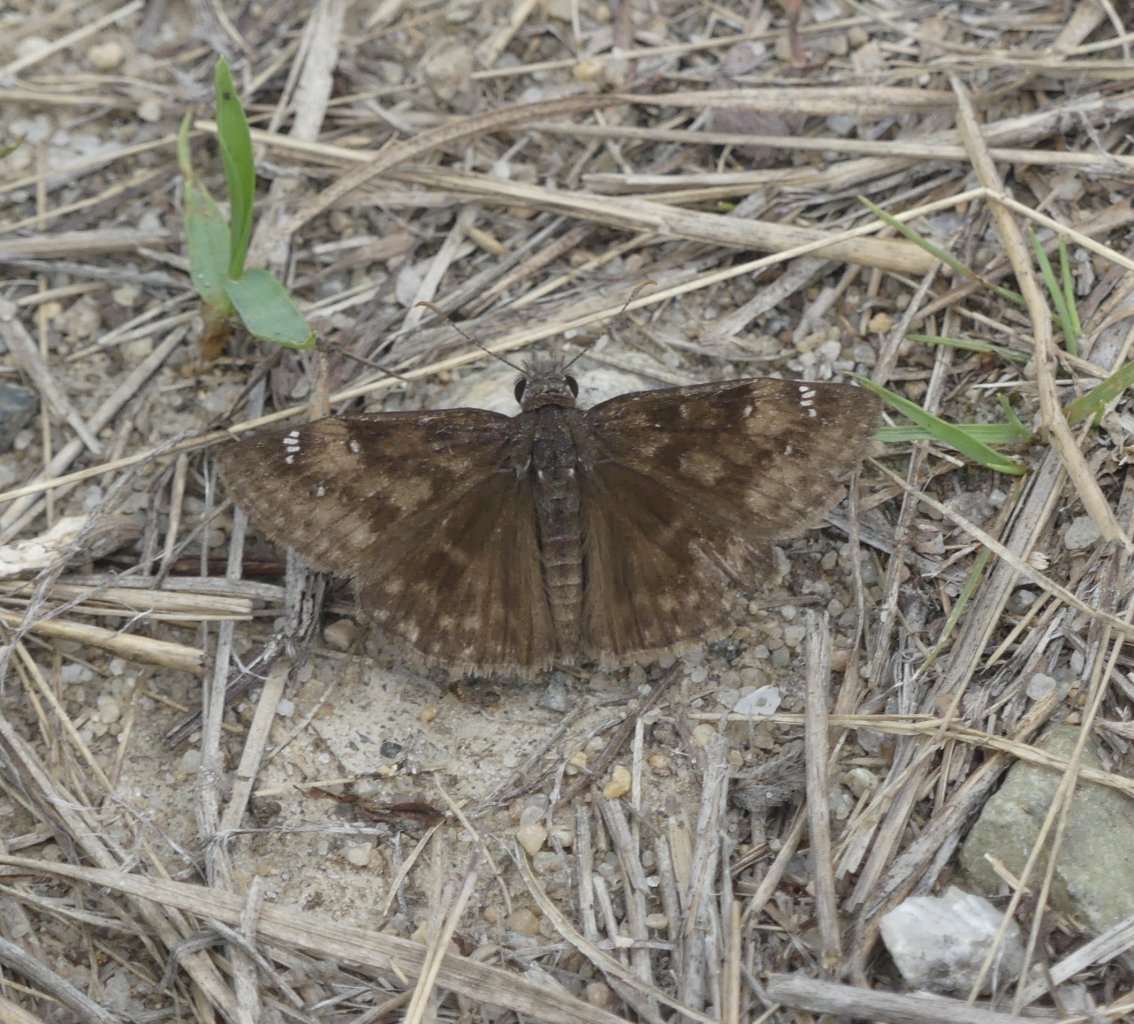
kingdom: Animalia
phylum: Arthropoda
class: Insecta
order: Lepidoptera
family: Hesperiidae
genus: Gesta
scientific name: Gesta
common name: Horace's Duskywing
